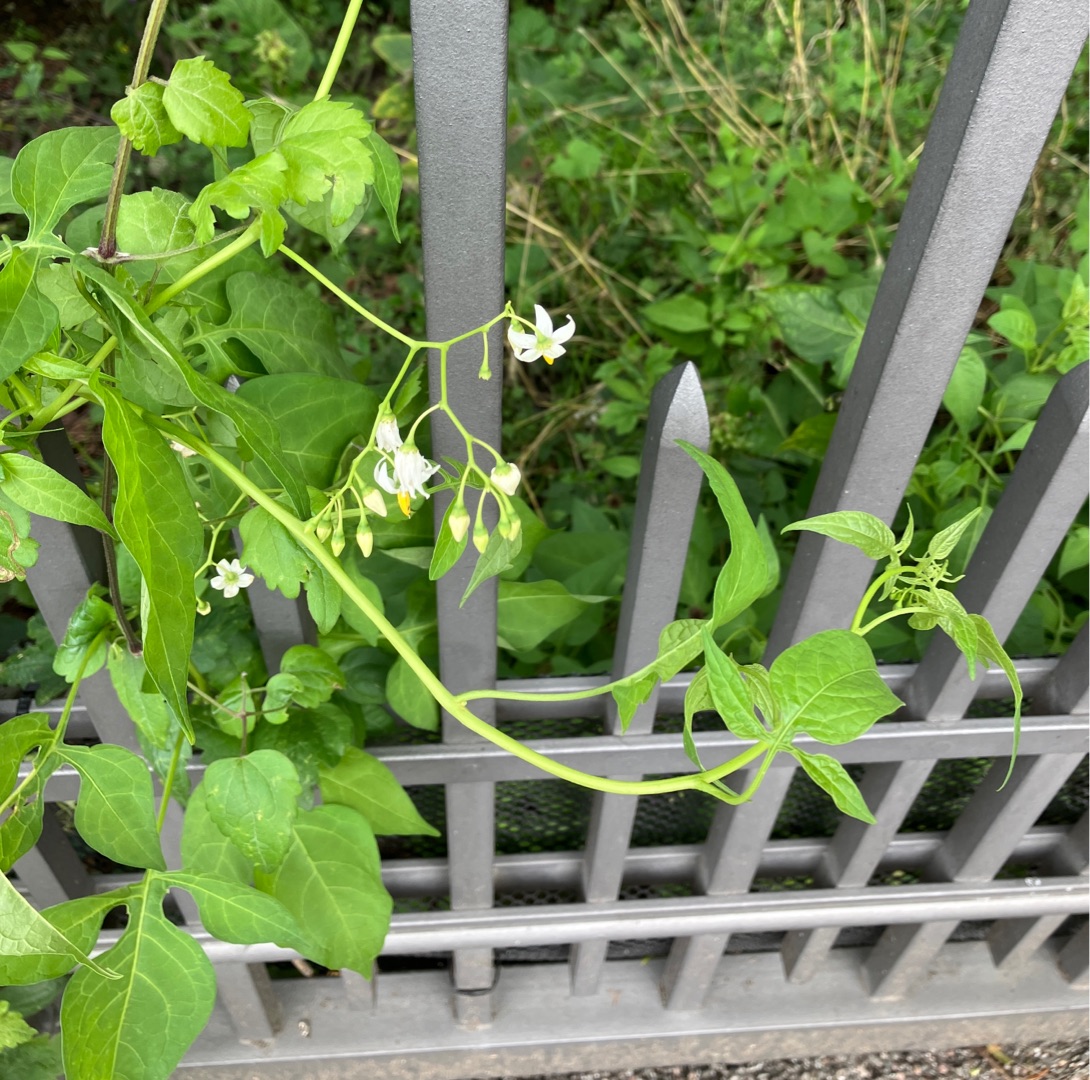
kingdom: Plantae
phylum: Tracheophyta
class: Magnoliopsida
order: Solanales
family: Solanaceae
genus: Solanum
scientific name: Solanum nigrum
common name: Sort natskygge
